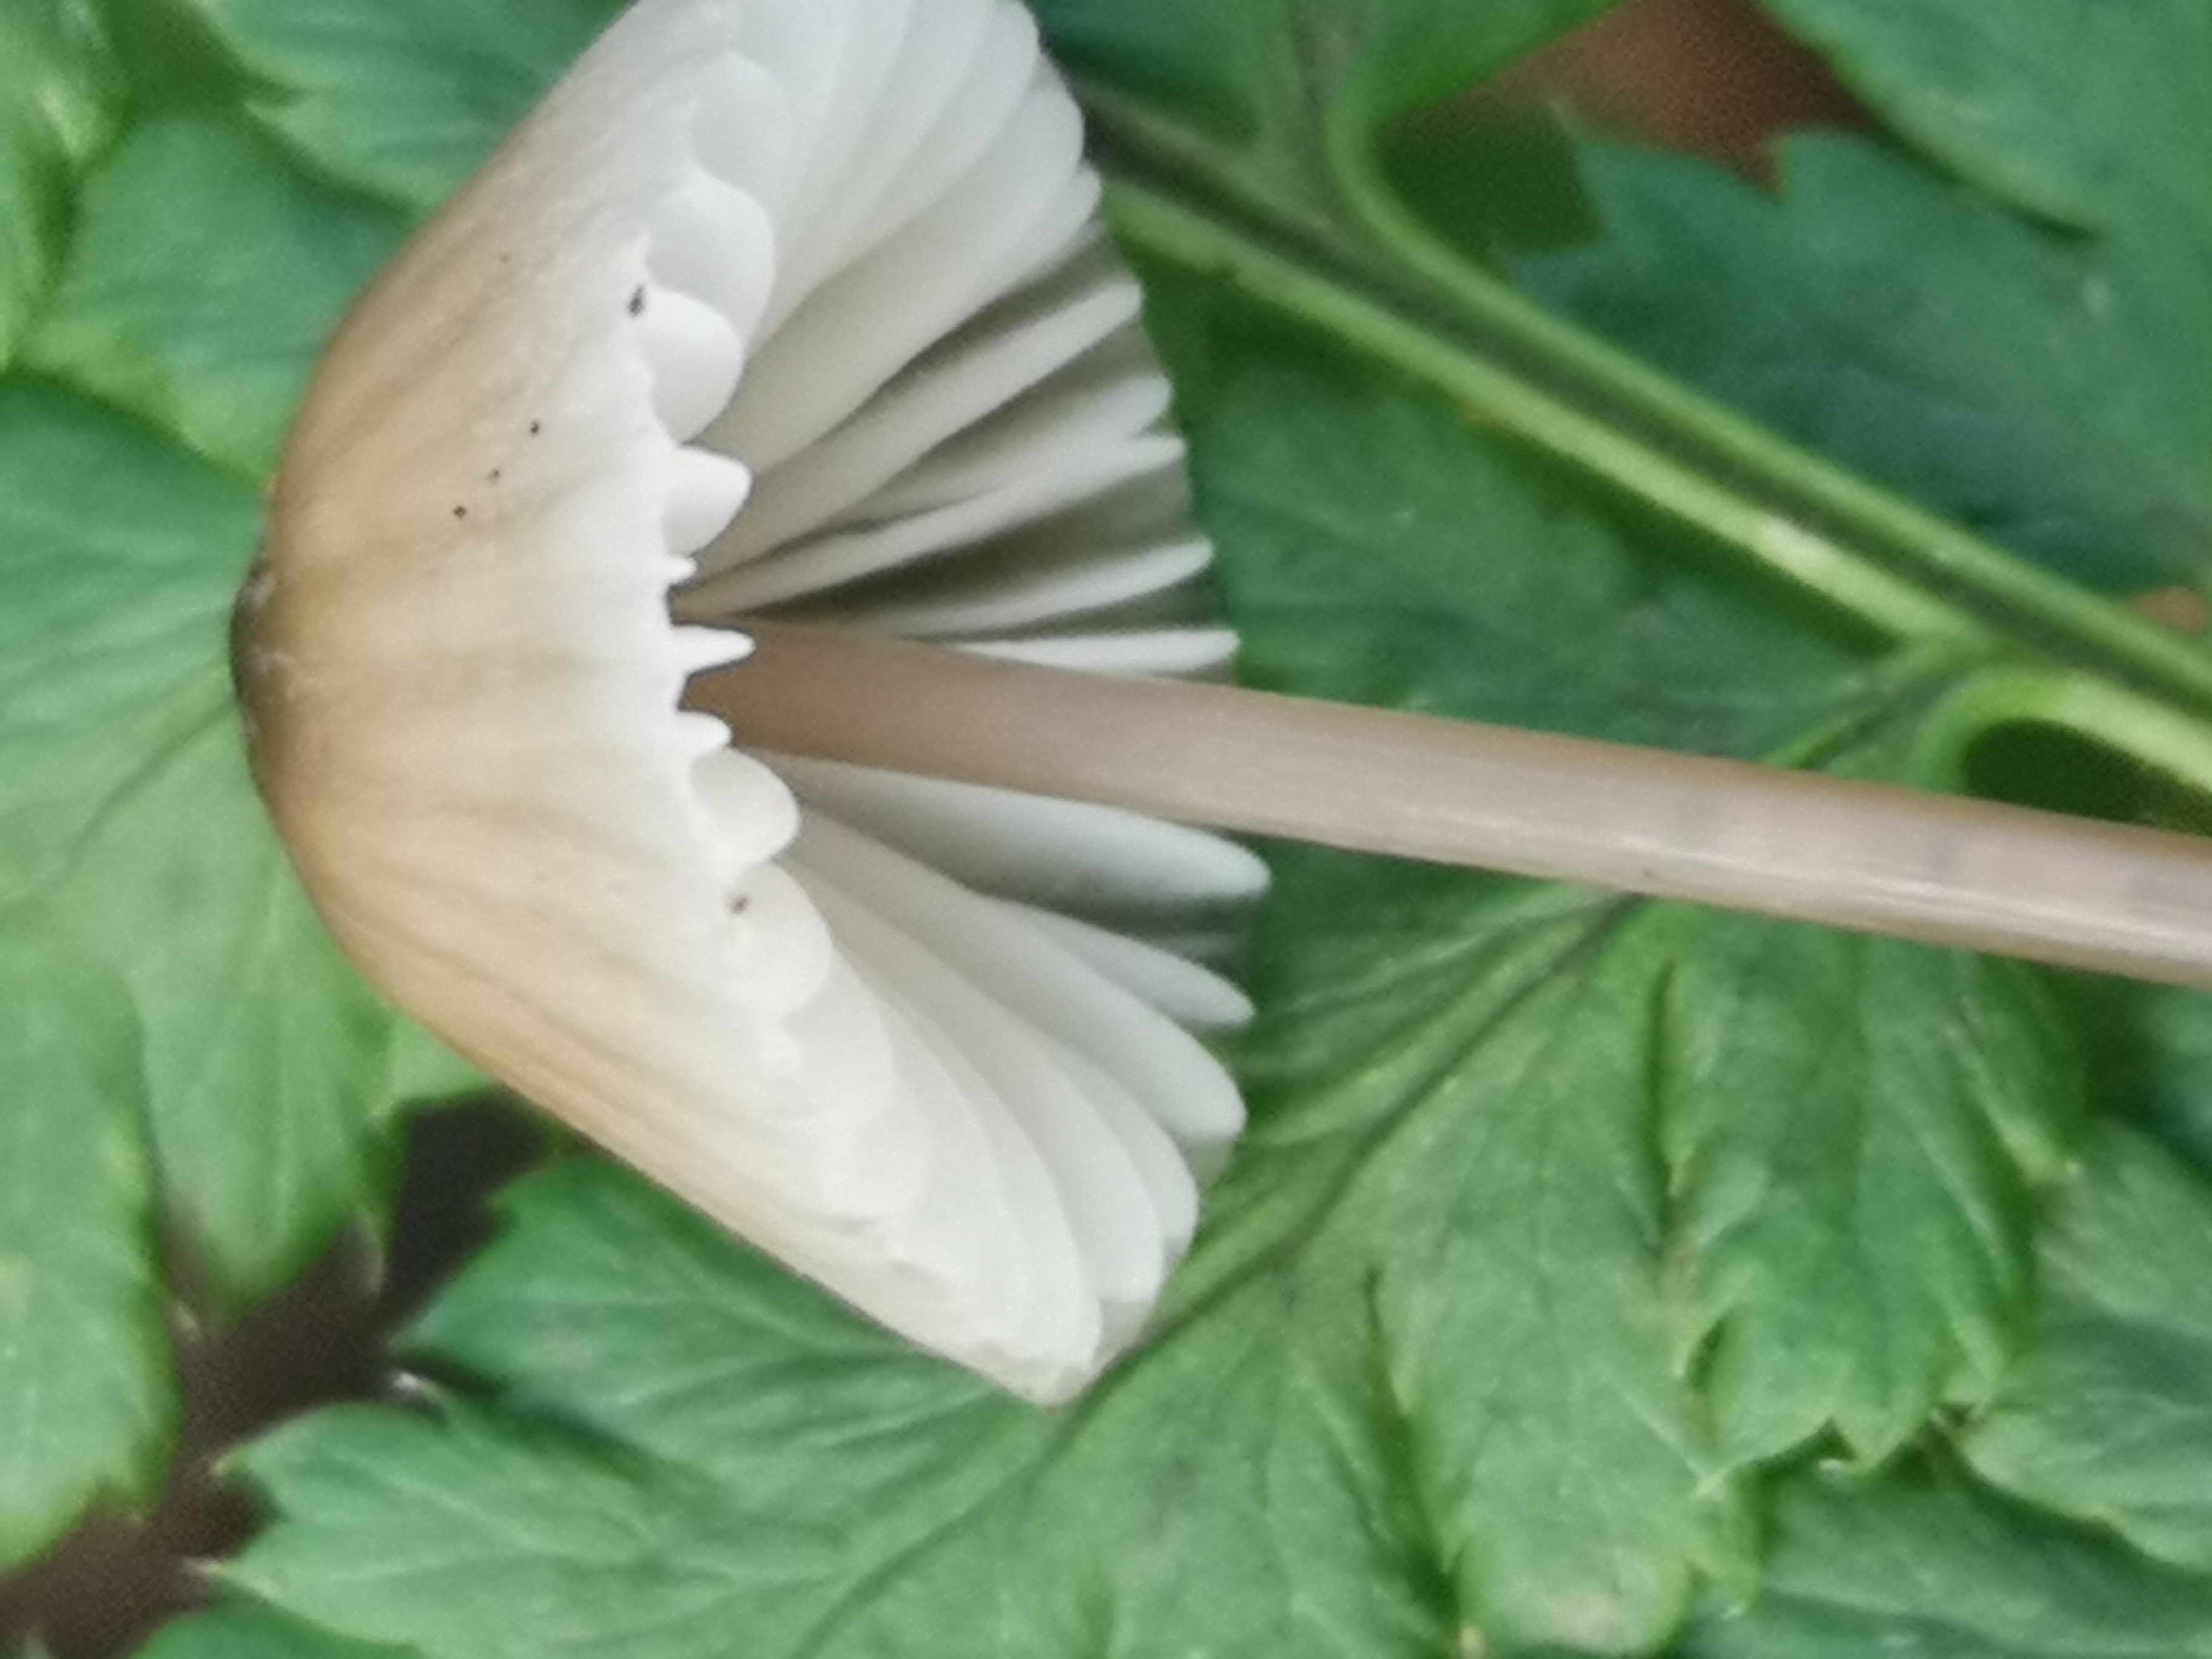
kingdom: Fungi
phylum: Basidiomycota
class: Agaricomycetes
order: Agaricales
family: Mycenaceae
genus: Mycena
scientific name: Mycena galopus
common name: hvidmælket huesvamp
